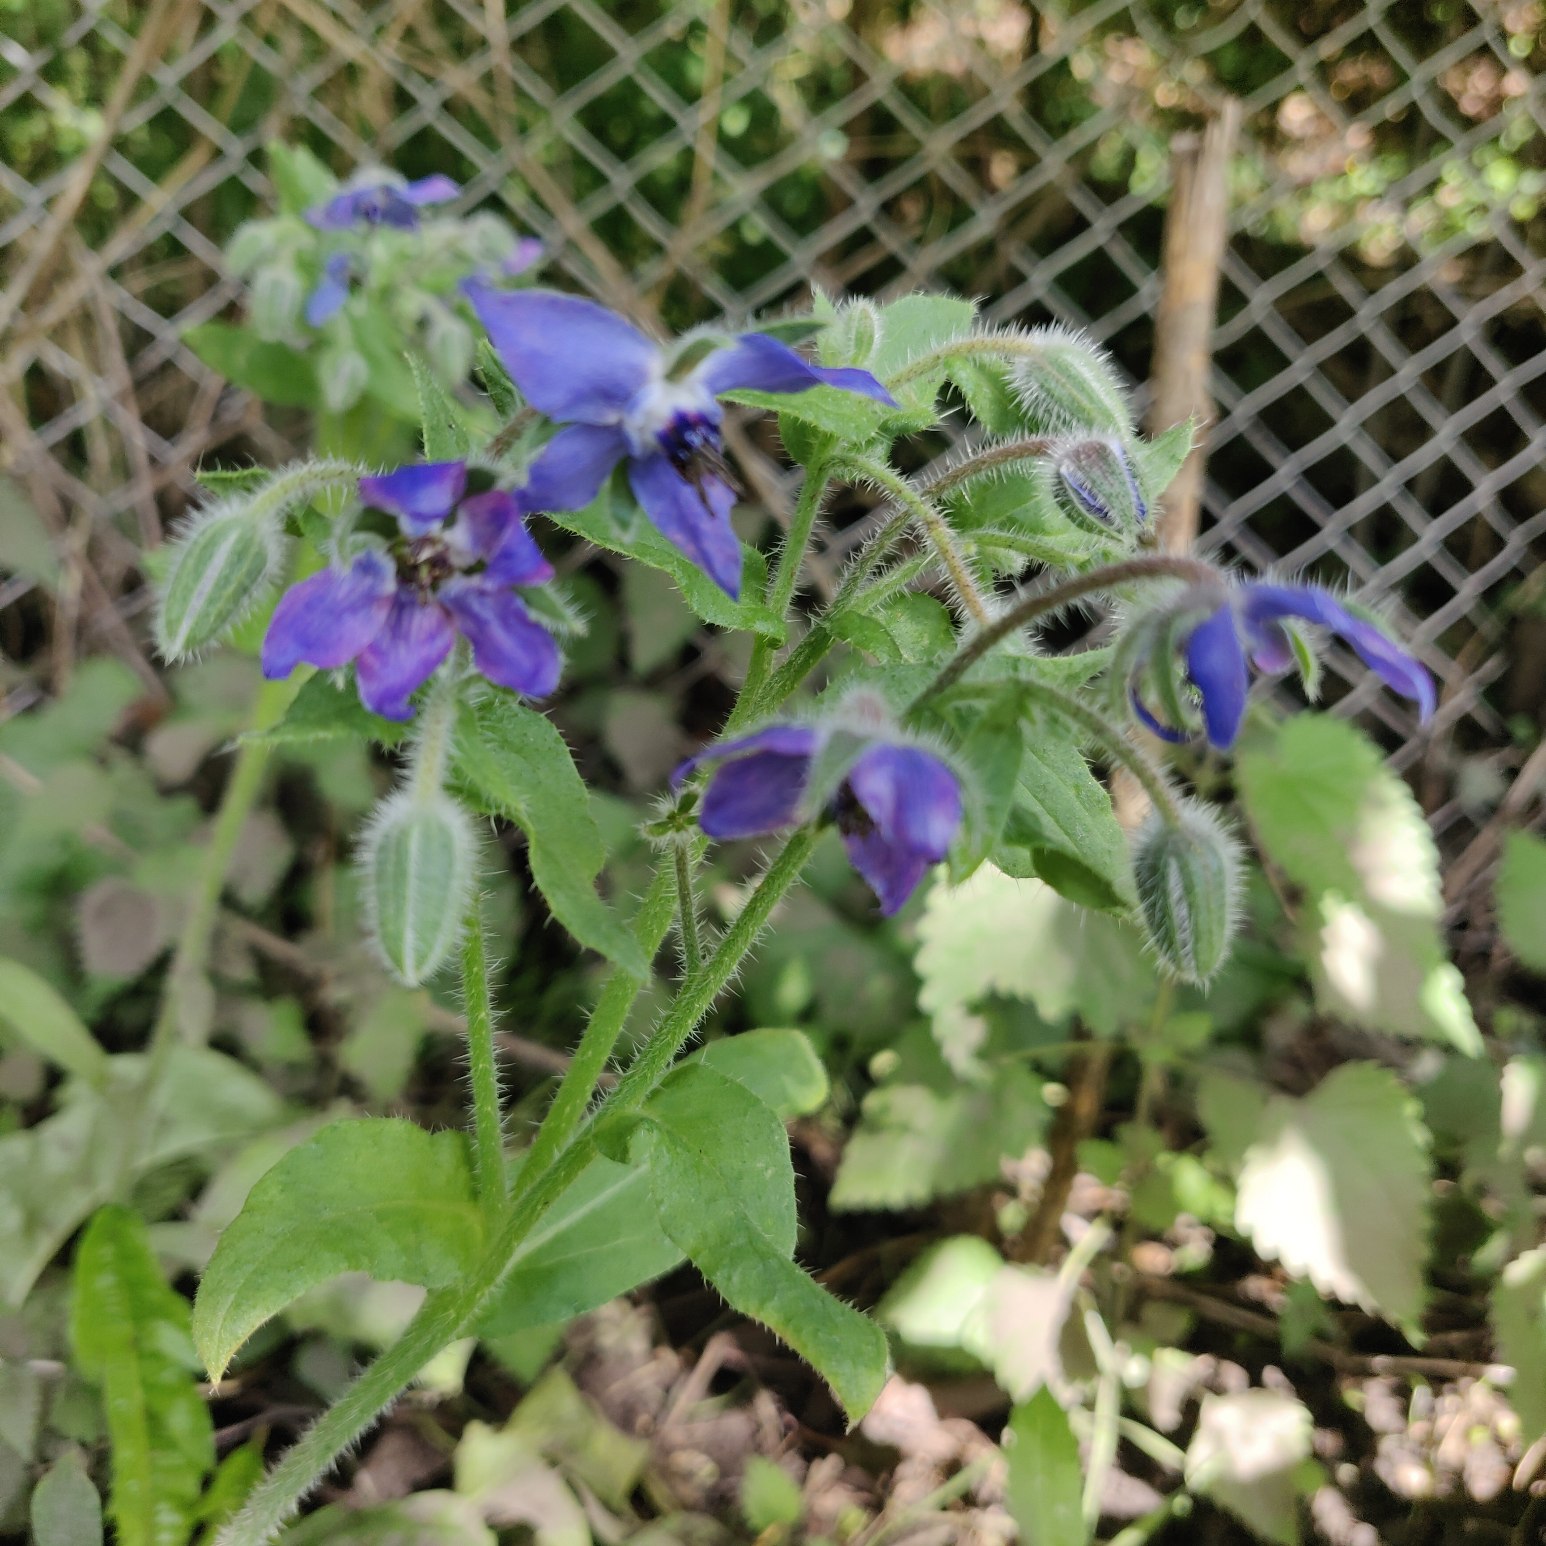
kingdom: Plantae
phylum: Tracheophyta
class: Magnoliopsida
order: Boraginales
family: Boraginaceae
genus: Borago
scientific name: Borago officinalis
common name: Hjulkrone
